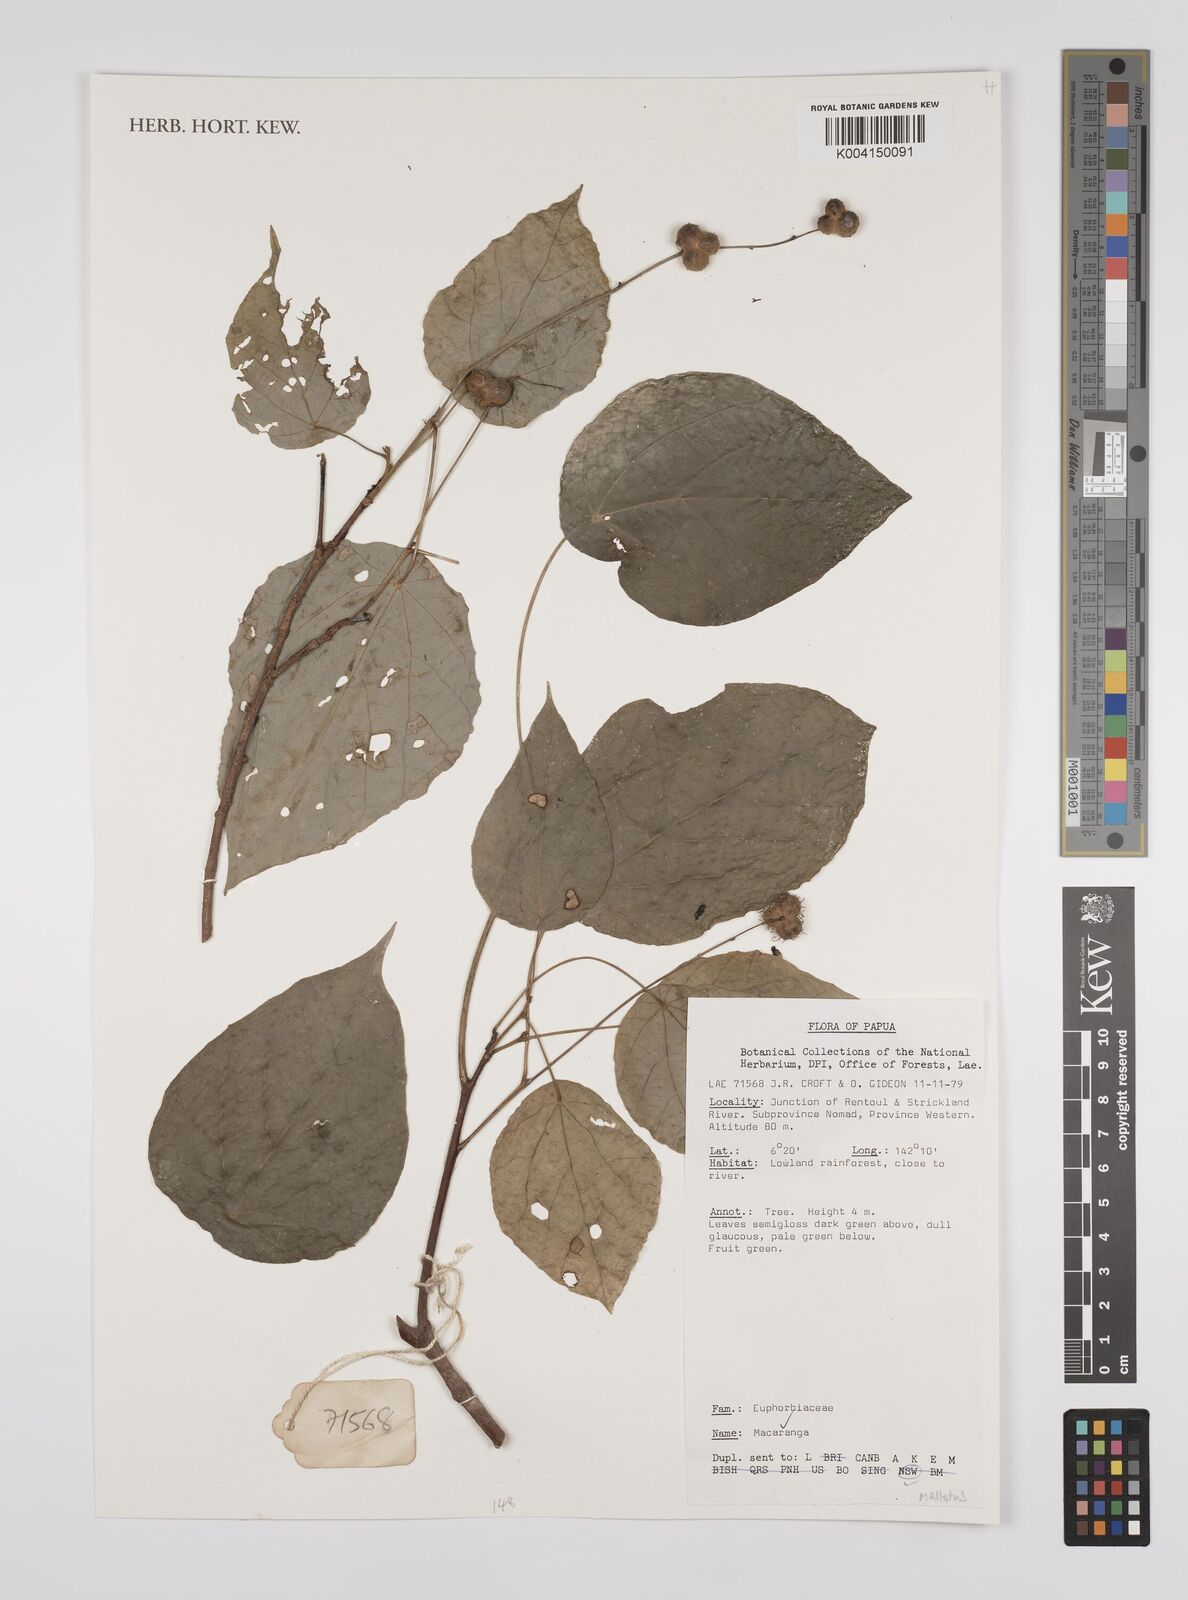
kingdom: Plantae
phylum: Tracheophyta
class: Magnoliopsida
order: Malpighiales
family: Euphorbiaceae
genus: Macaranga
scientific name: Macaranga
